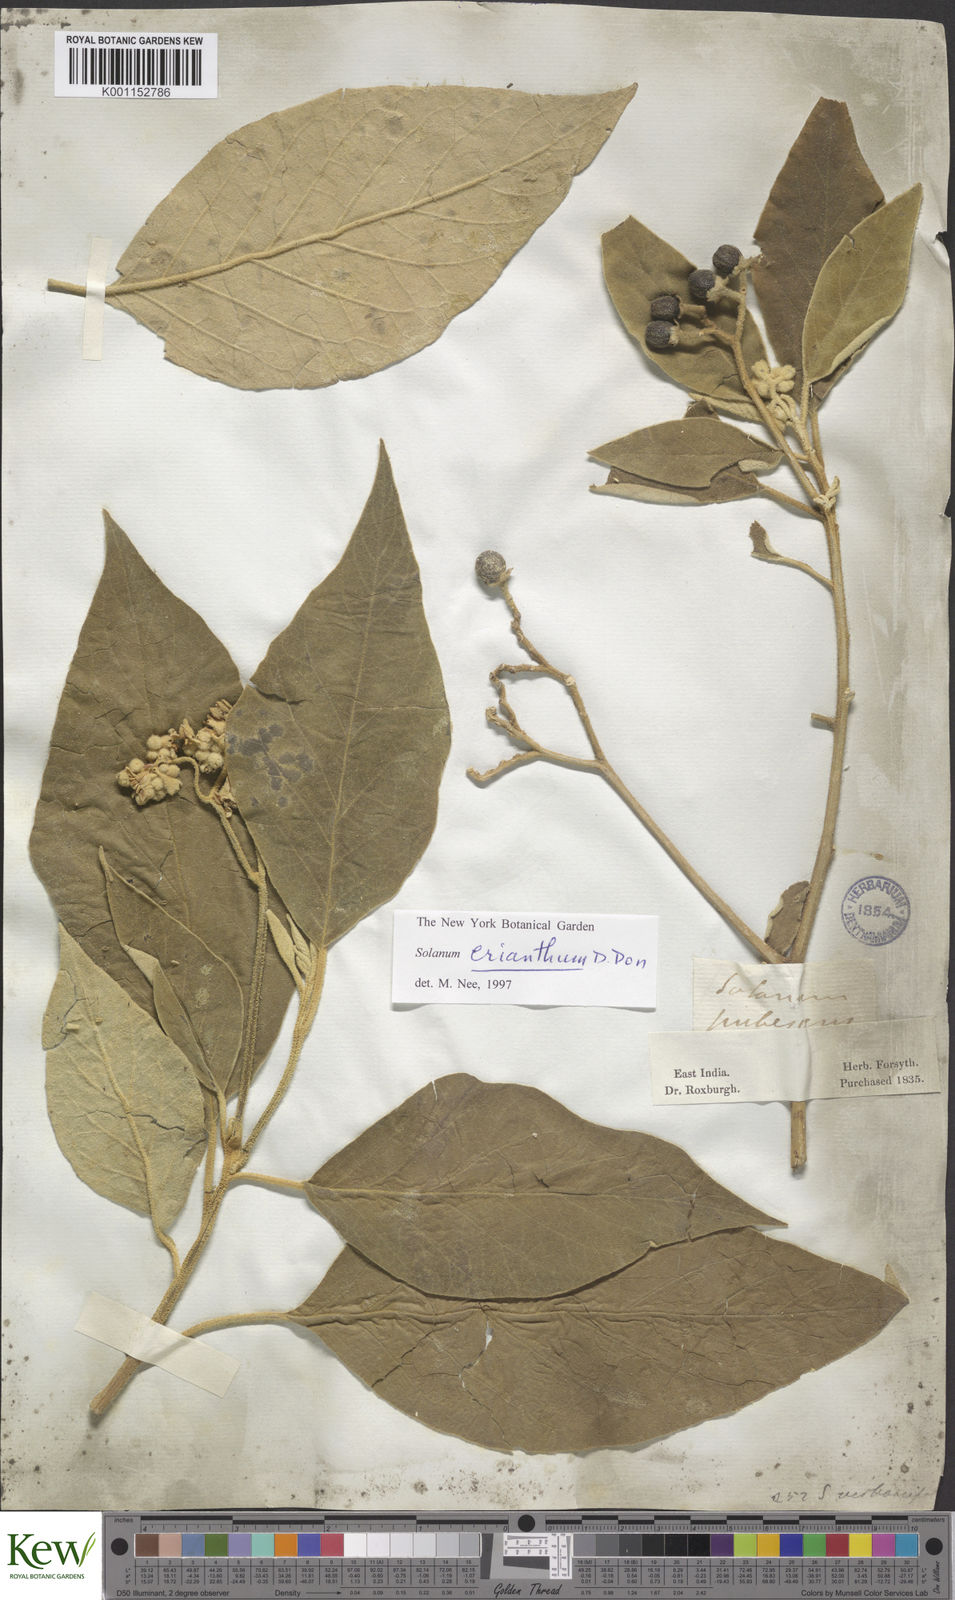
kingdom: Plantae
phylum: Tracheophyta
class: Magnoliopsida
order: Solanales
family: Solanaceae
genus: Solanum
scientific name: Solanum erianthum
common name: Tobacco-tree
